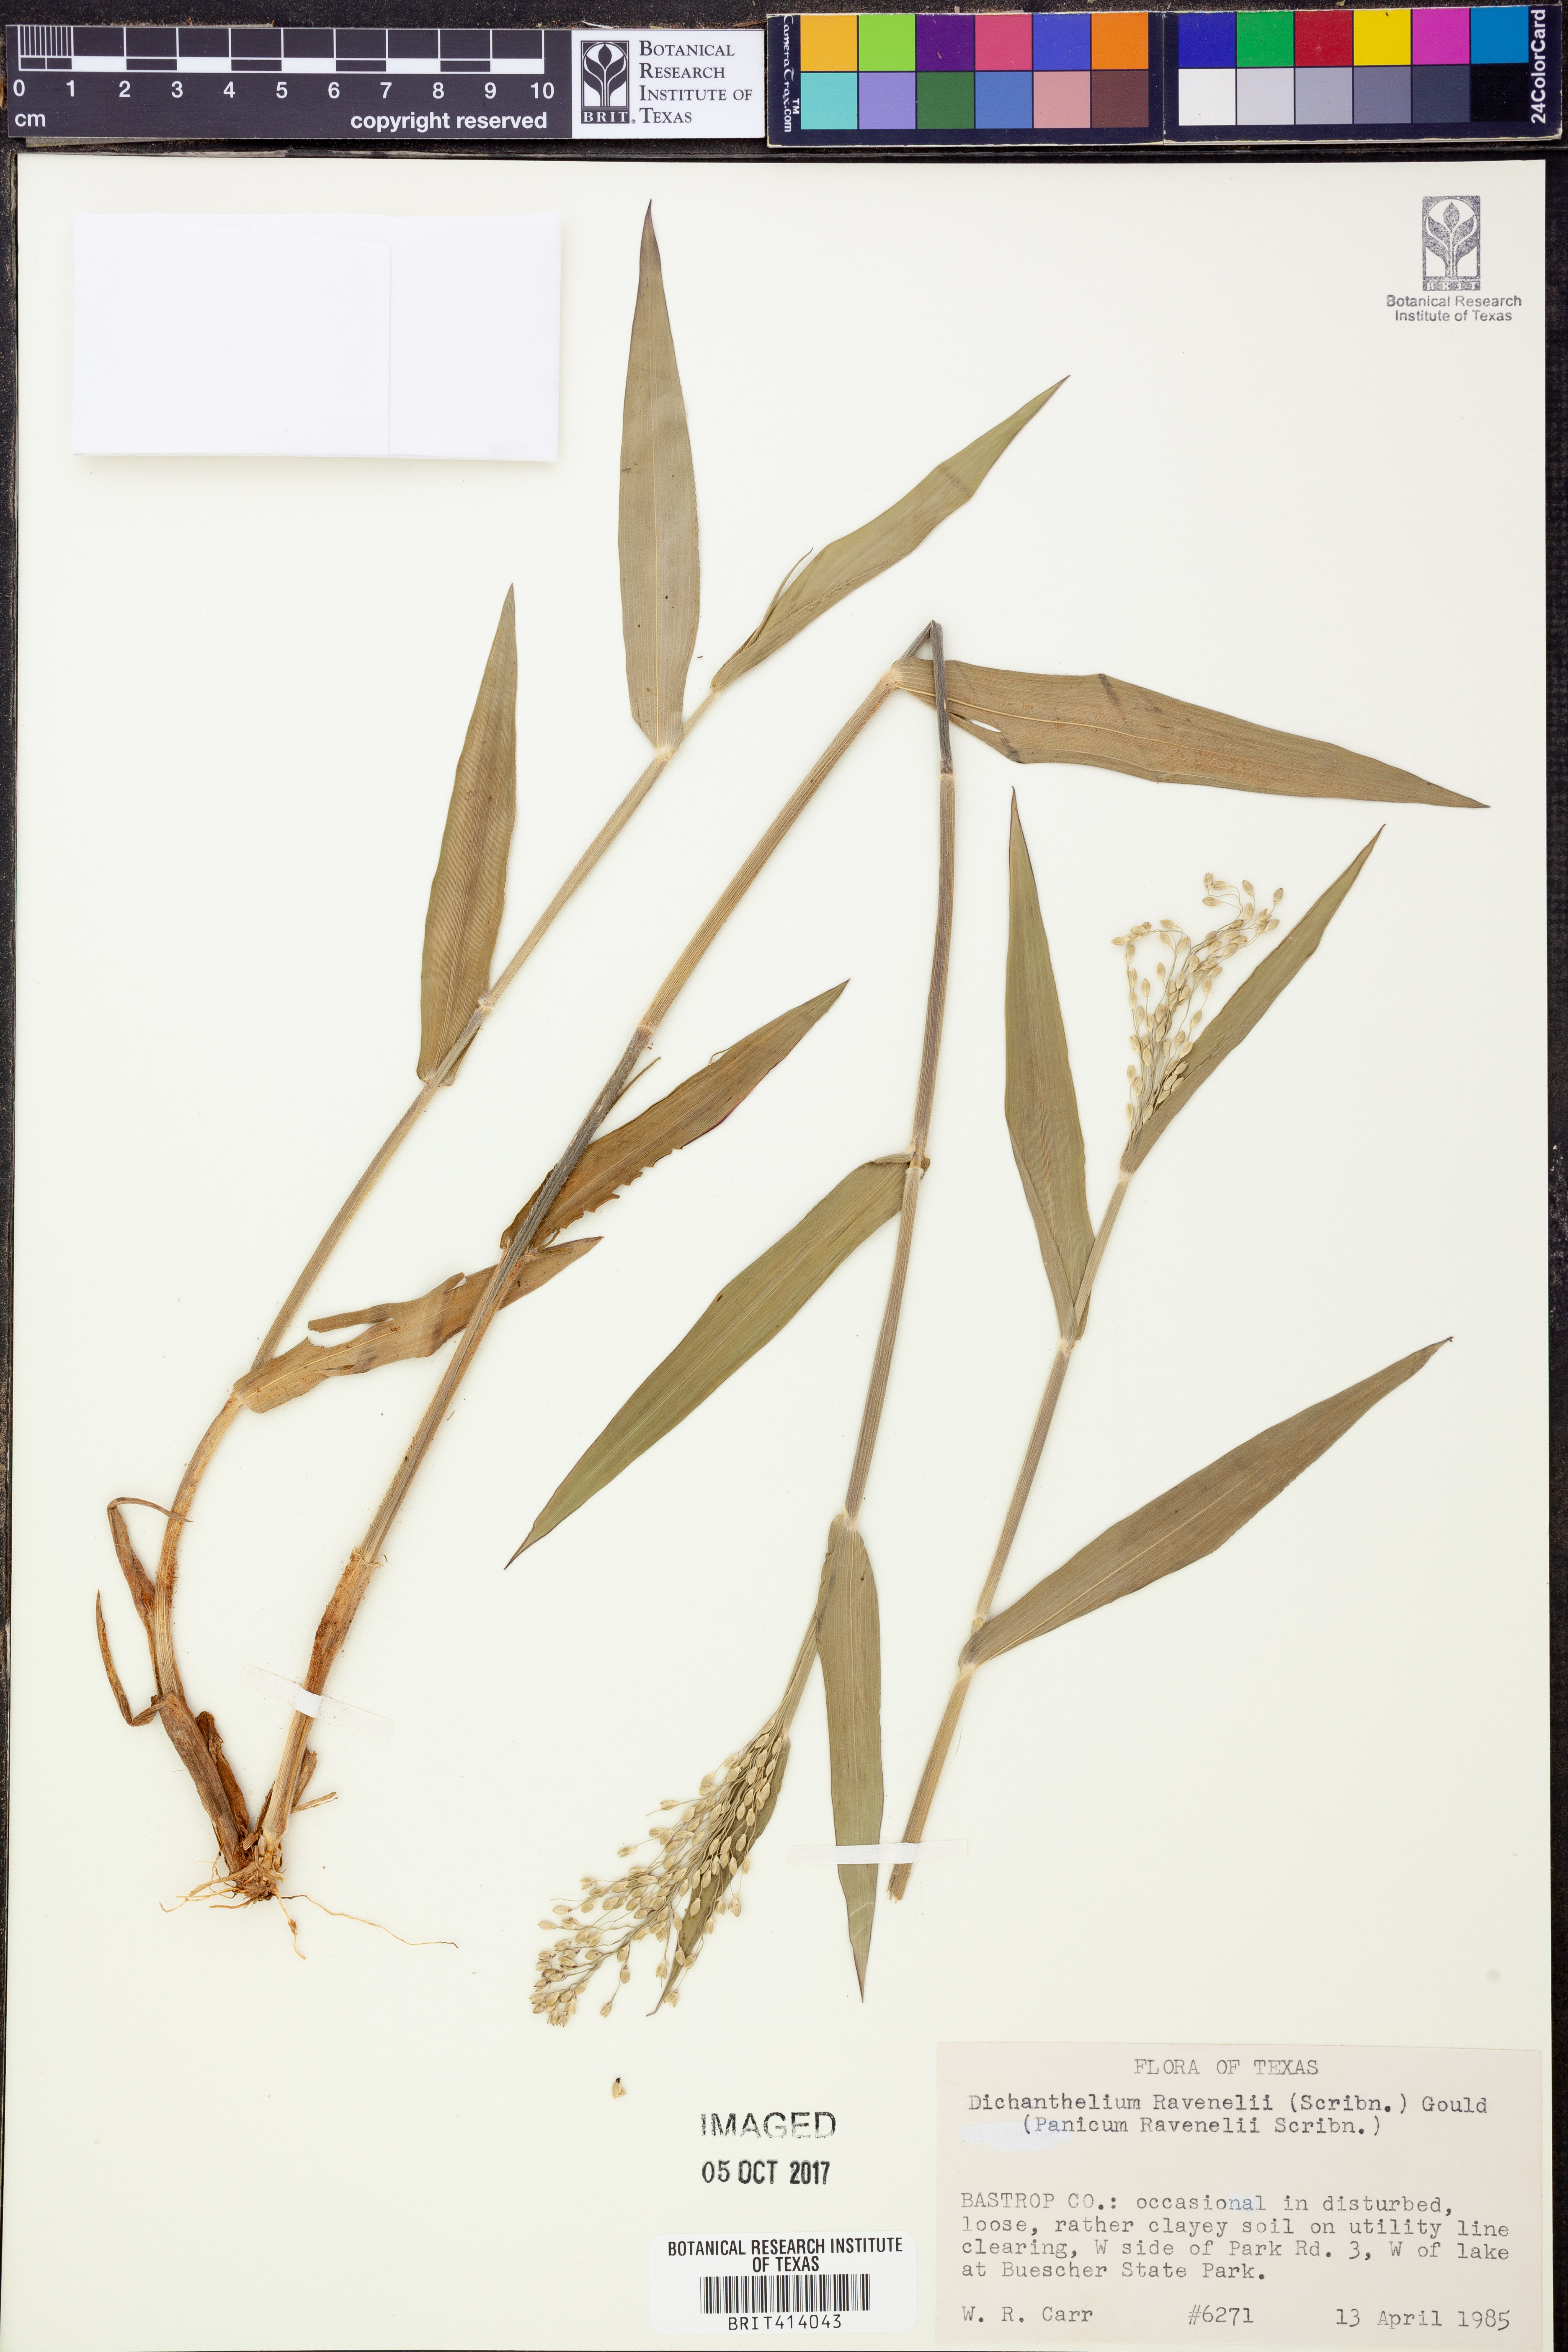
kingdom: Plantae
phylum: Tracheophyta
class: Liliopsida
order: Poales
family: Poaceae
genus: Dichanthelium
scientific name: Dichanthelium ravenelii
